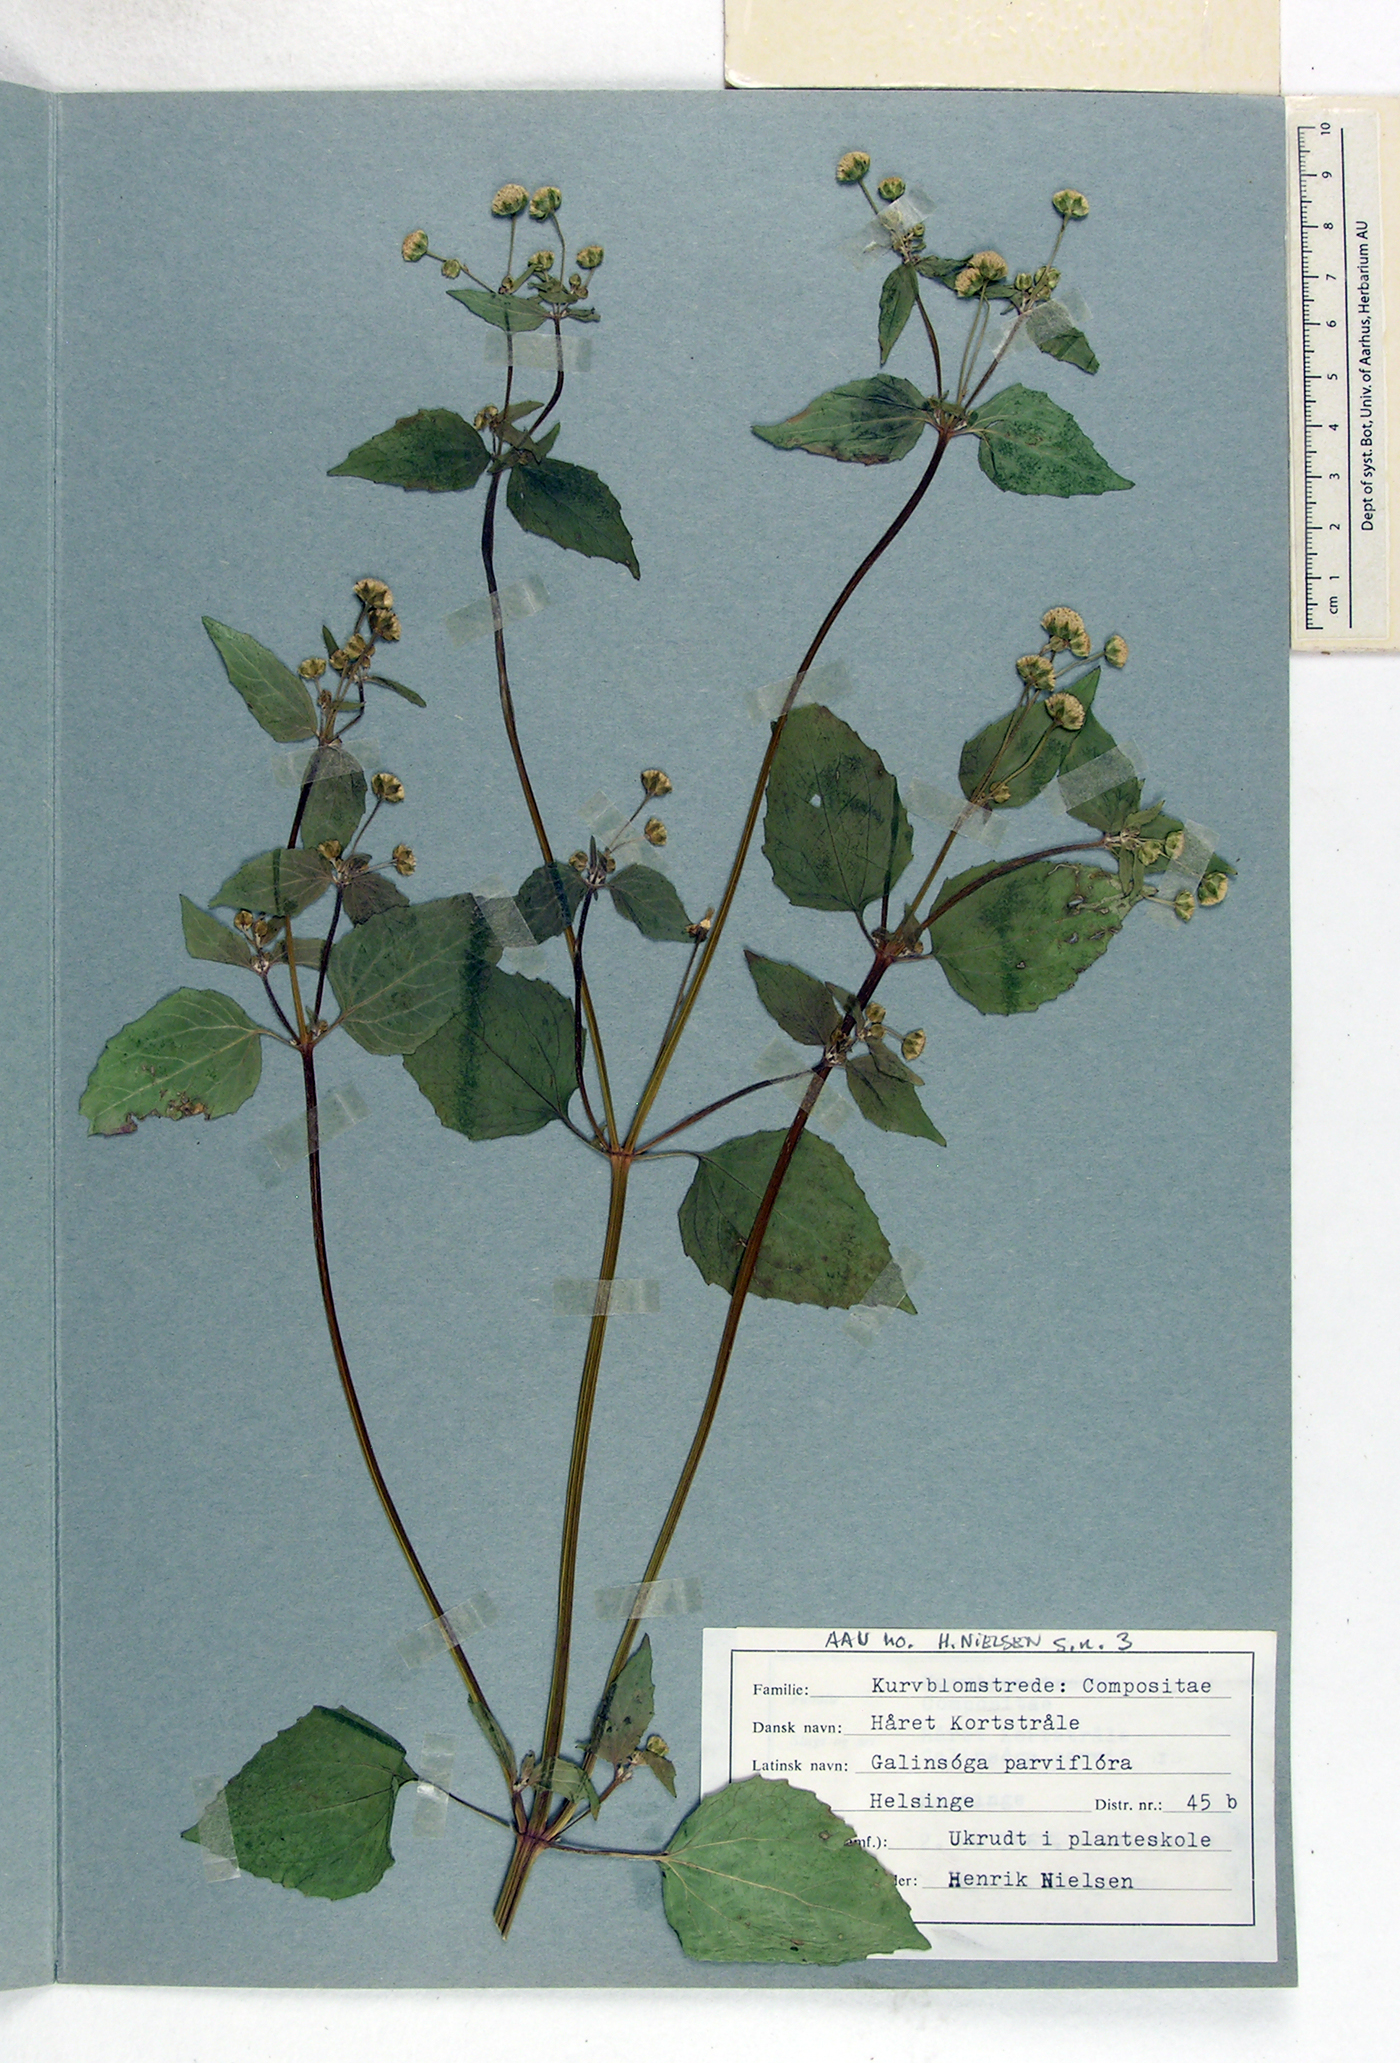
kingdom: Plantae
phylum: Tracheophyta
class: Magnoliopsida
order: Asterales
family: Asteraceae
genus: Galinsoga
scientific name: Galinsoga parviflora
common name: Gallant soldier
